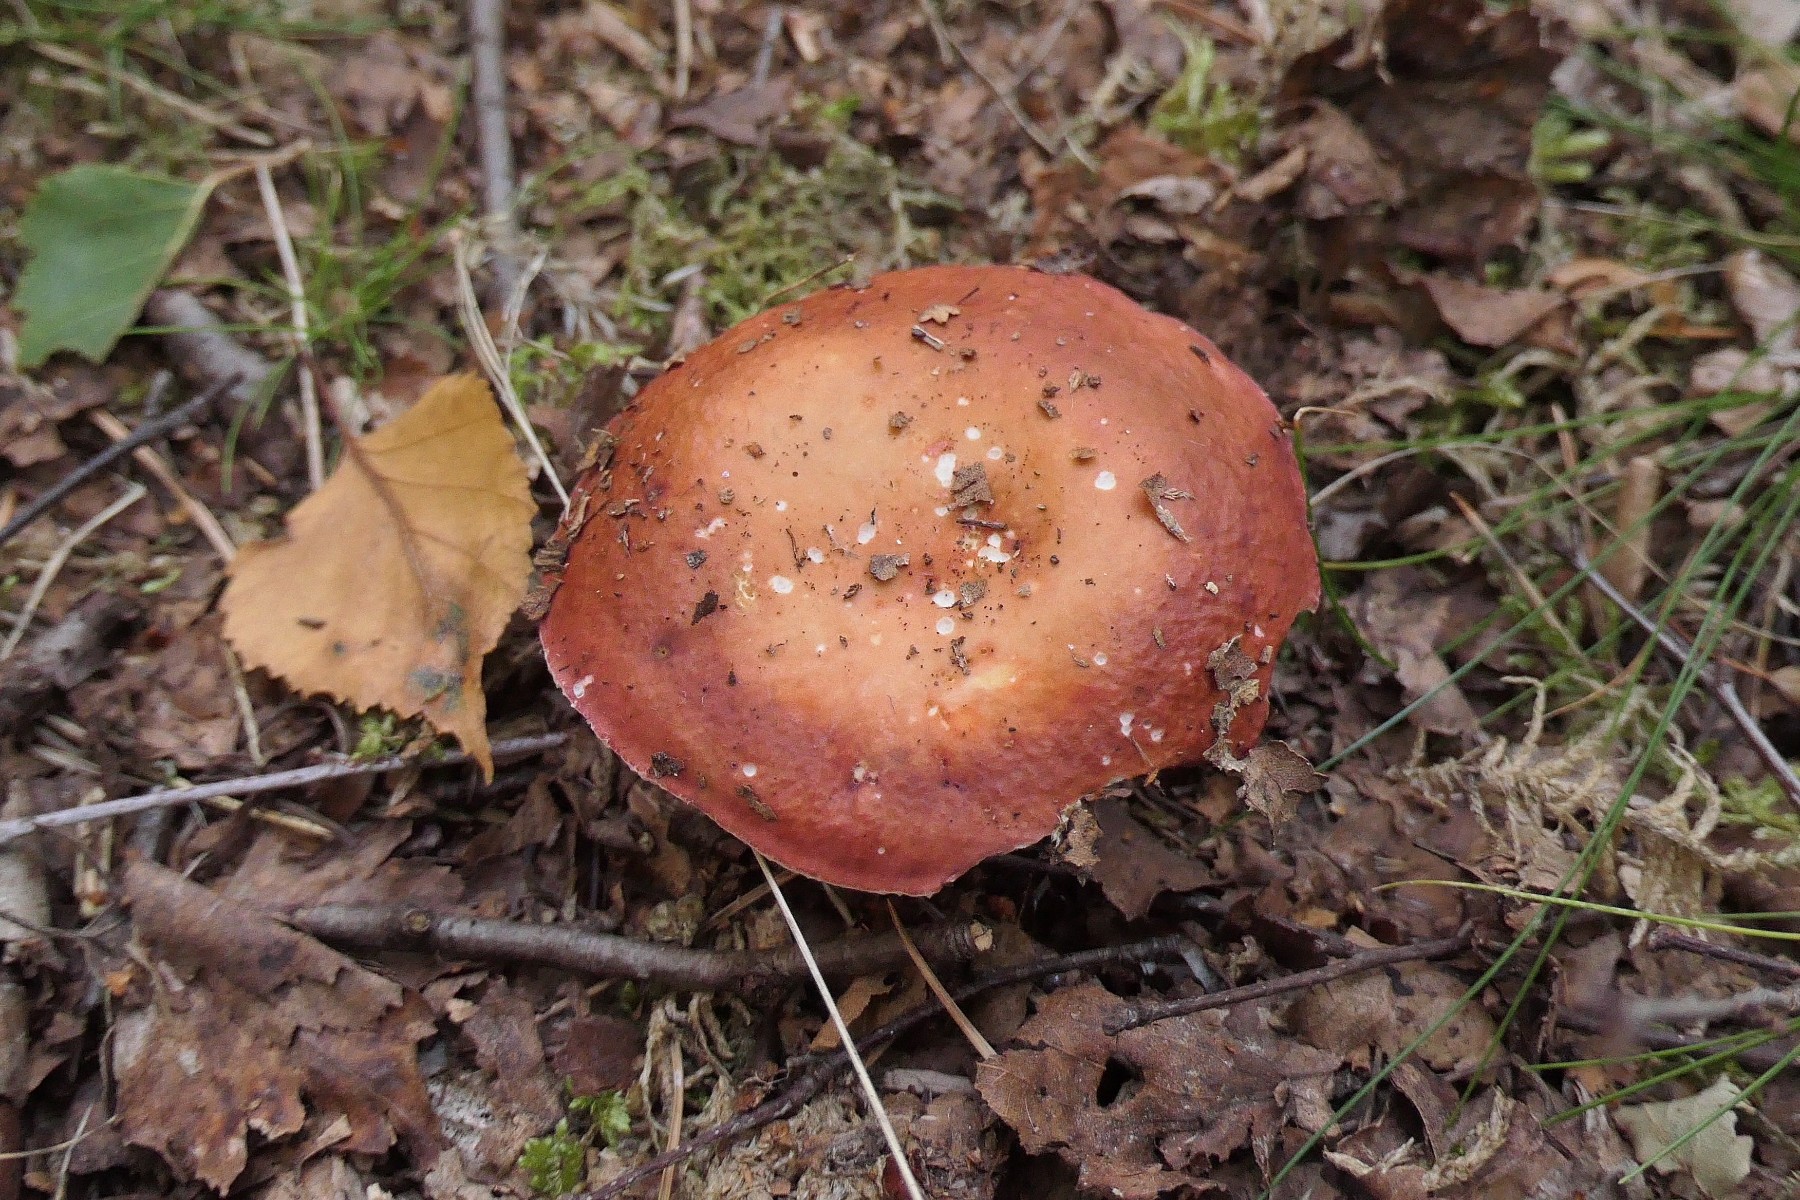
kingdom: Fungi
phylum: Basidiomycota
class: Agaricomycetes
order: Russulales
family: Russulaceae
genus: Russula
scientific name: Russula velenovskyi
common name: orangerød skørhat
